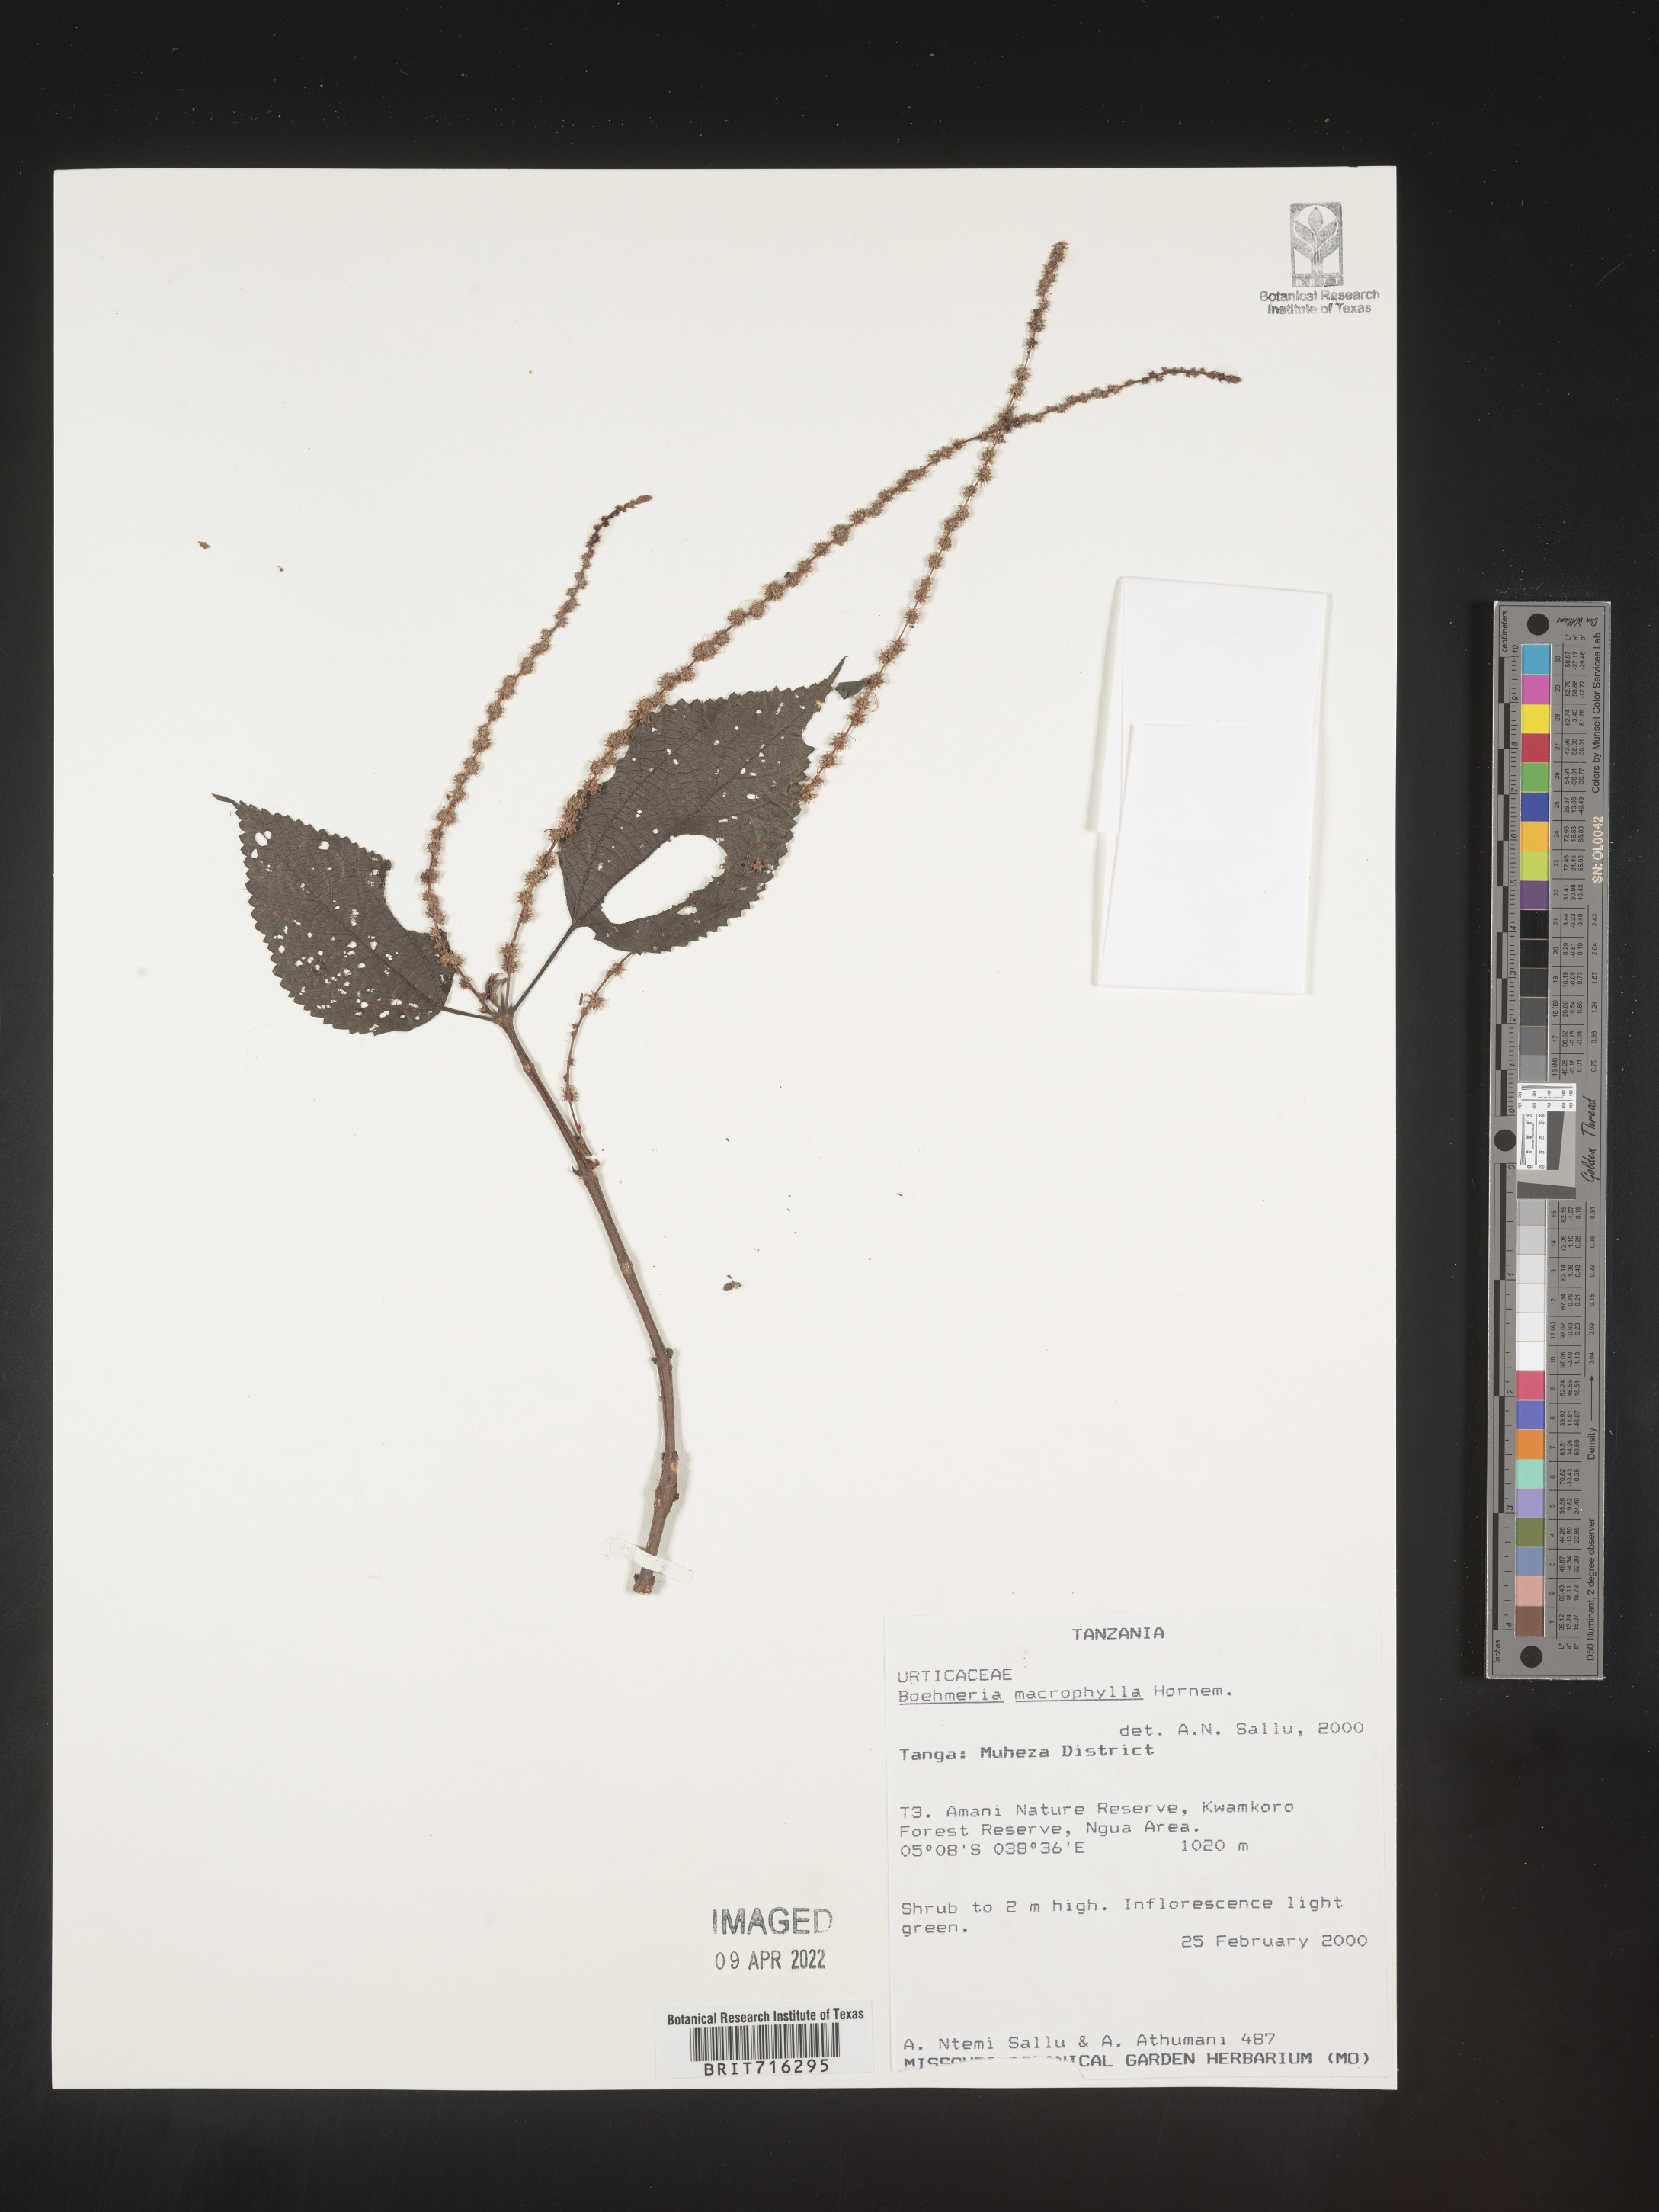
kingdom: Plantae
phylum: Tracheophyta
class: Magnoliopsida
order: Rosales
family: Urticaceae
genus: Boehmeria
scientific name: Boehmeria
